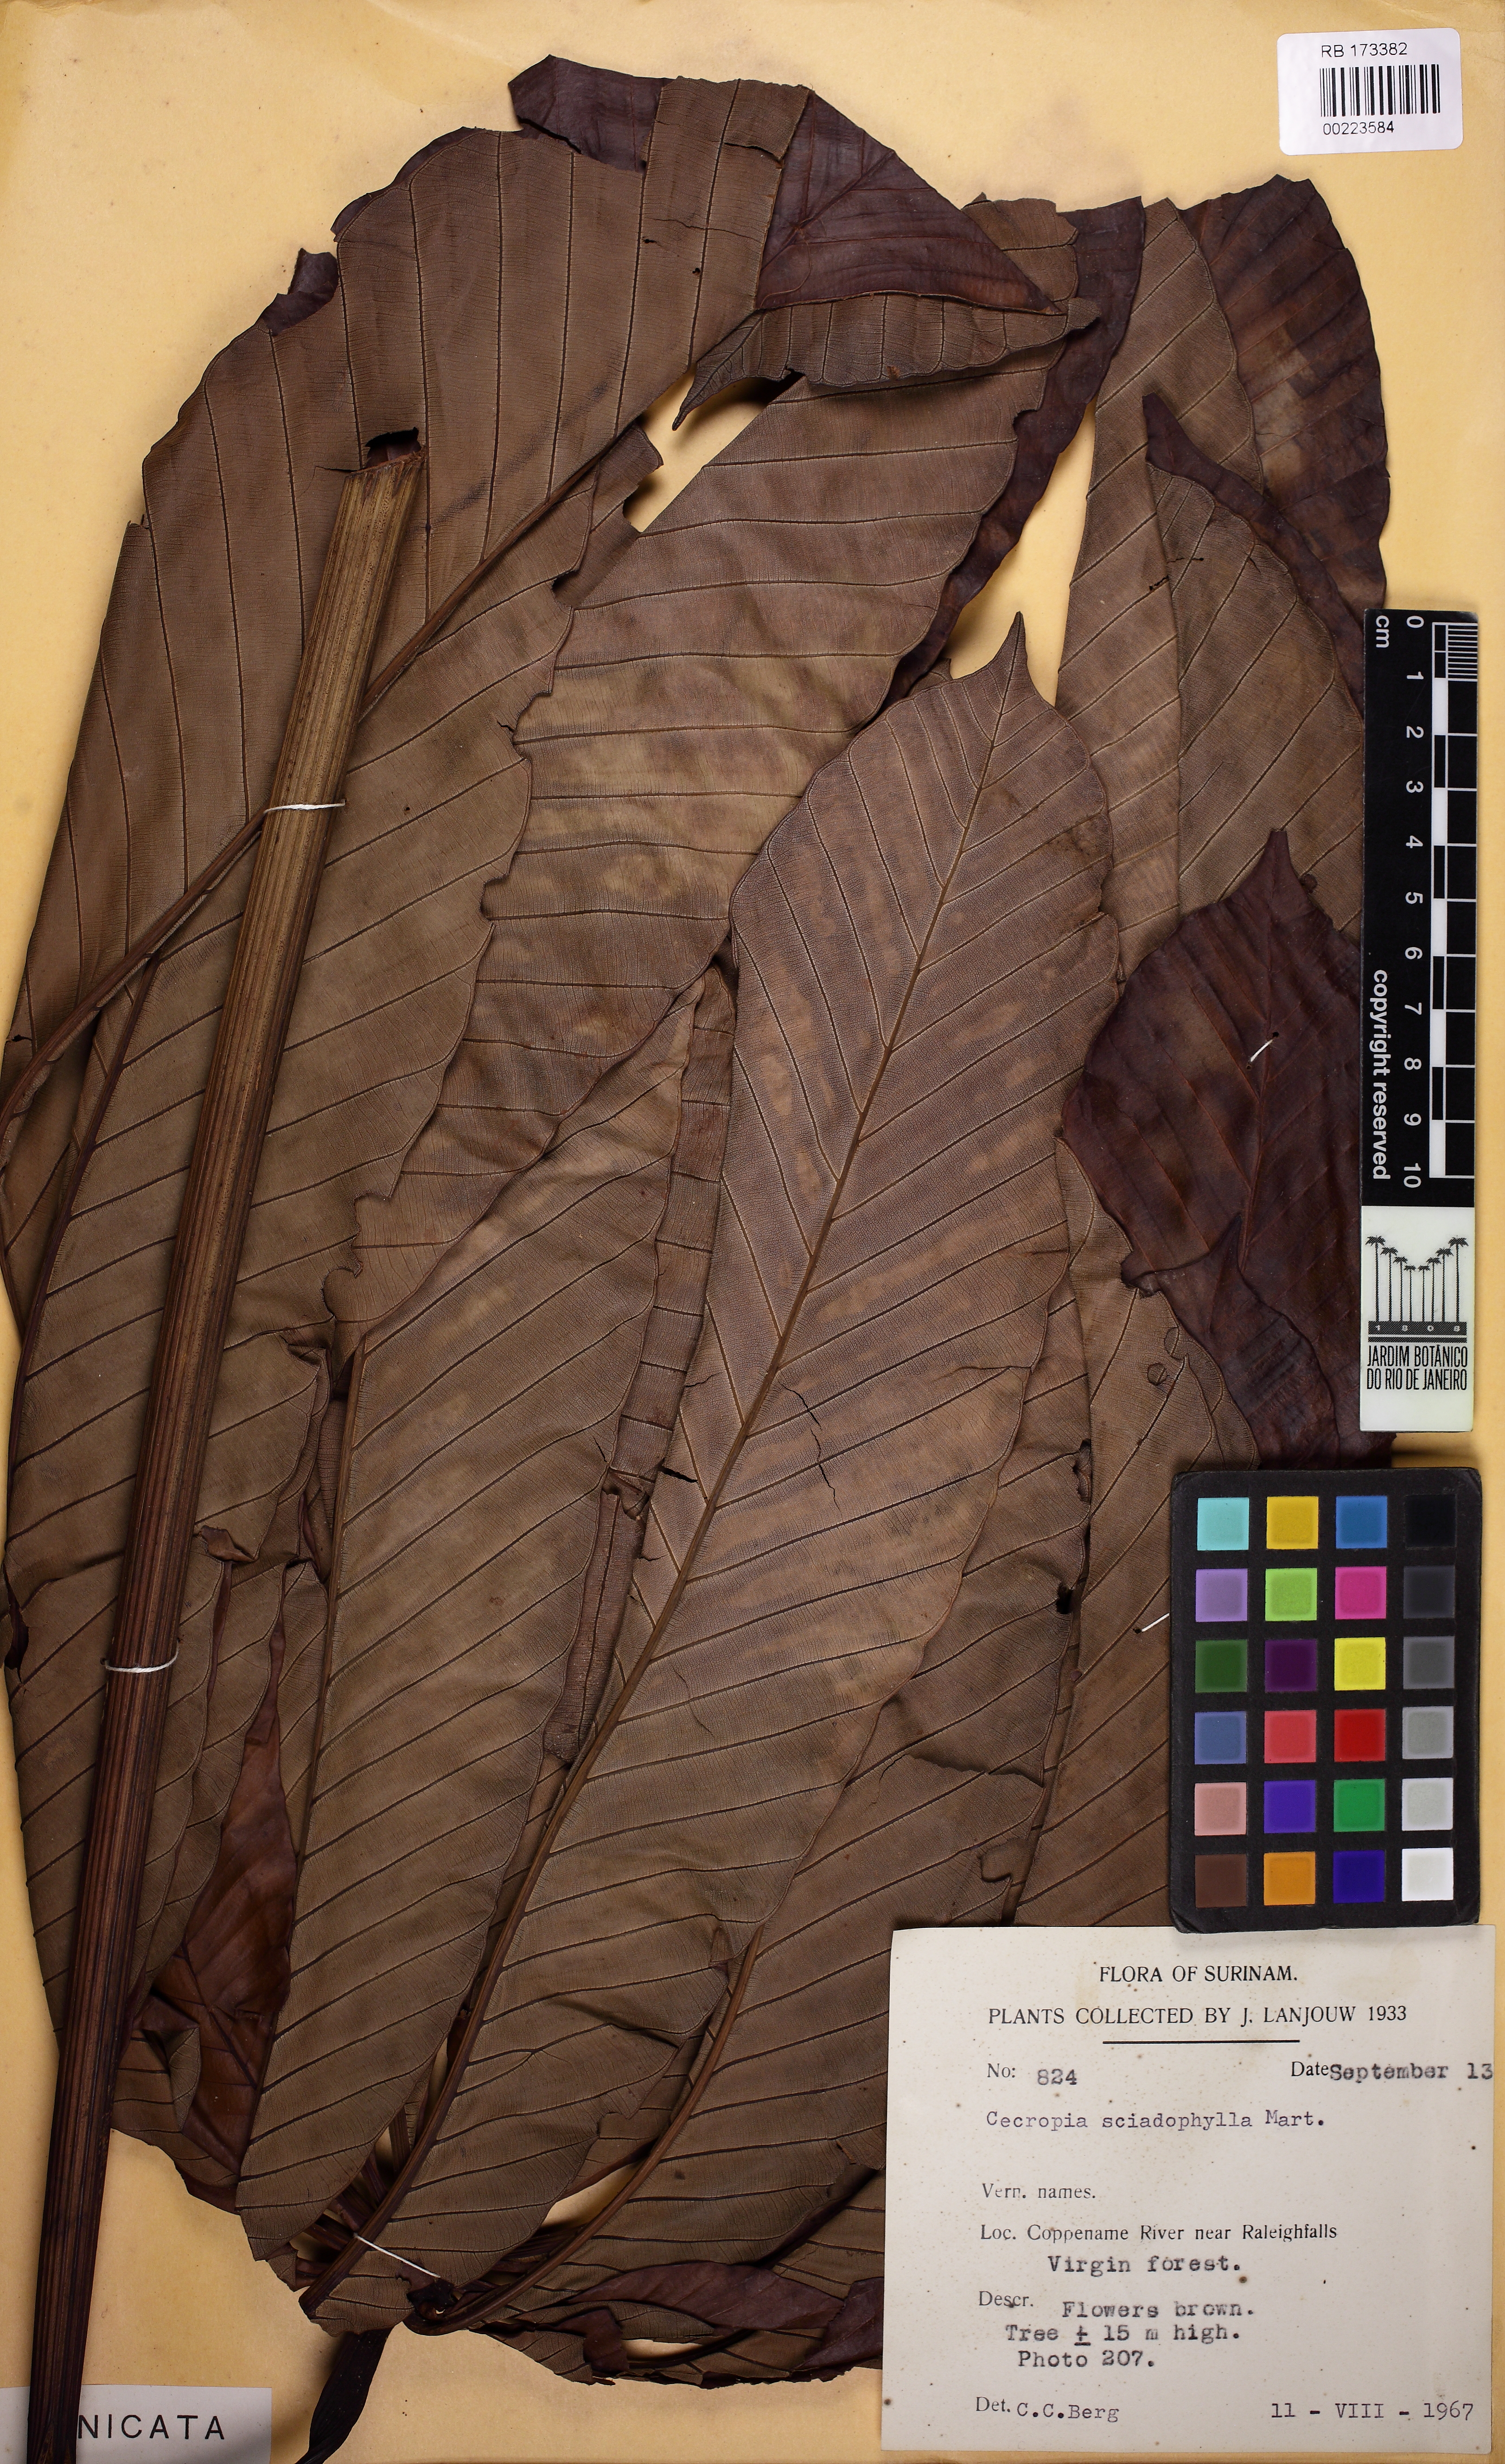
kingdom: Plantae
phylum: Tracheophyta
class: Magnoliopsida
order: Rosales
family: Urticaceae
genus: Cecropia
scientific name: Cecropia sciadophylla
